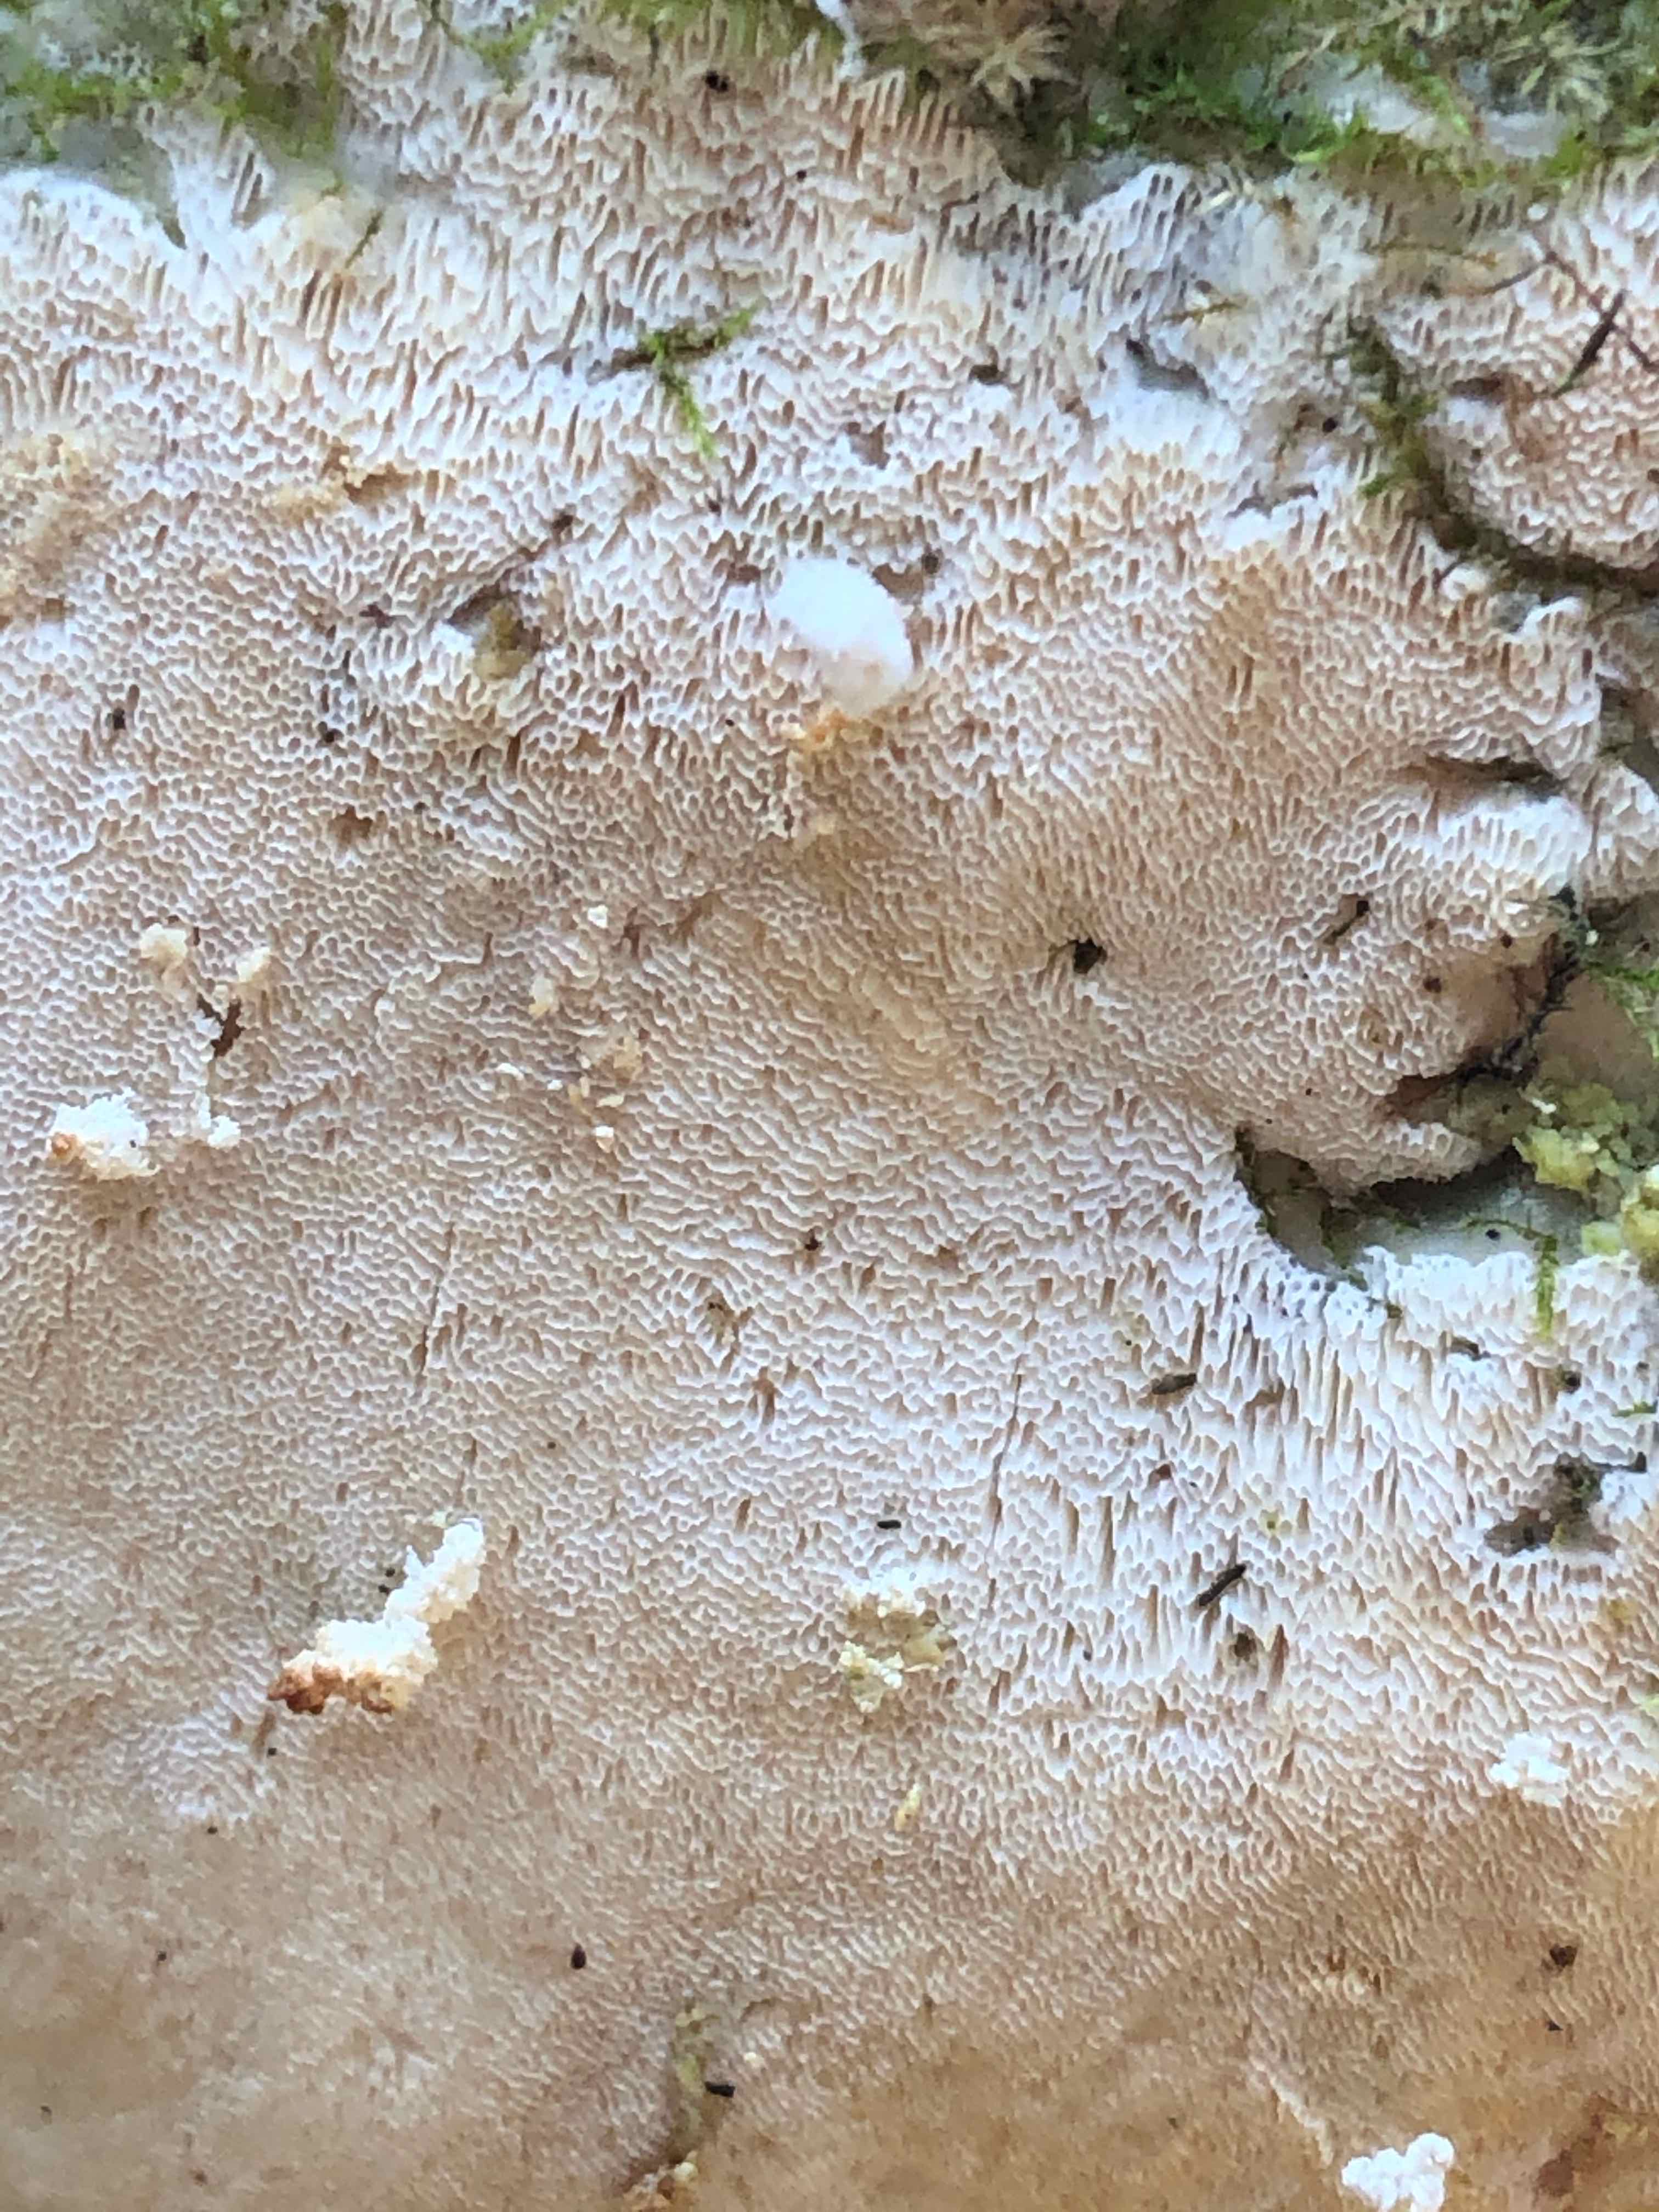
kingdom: Fungi
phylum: Basidiomycota
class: Agaricomycetes
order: Hymenochaetales
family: Oxyporaceae
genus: Oxyporus
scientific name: Oxyporus populinus
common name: sammenvokset trylleporesvamp
